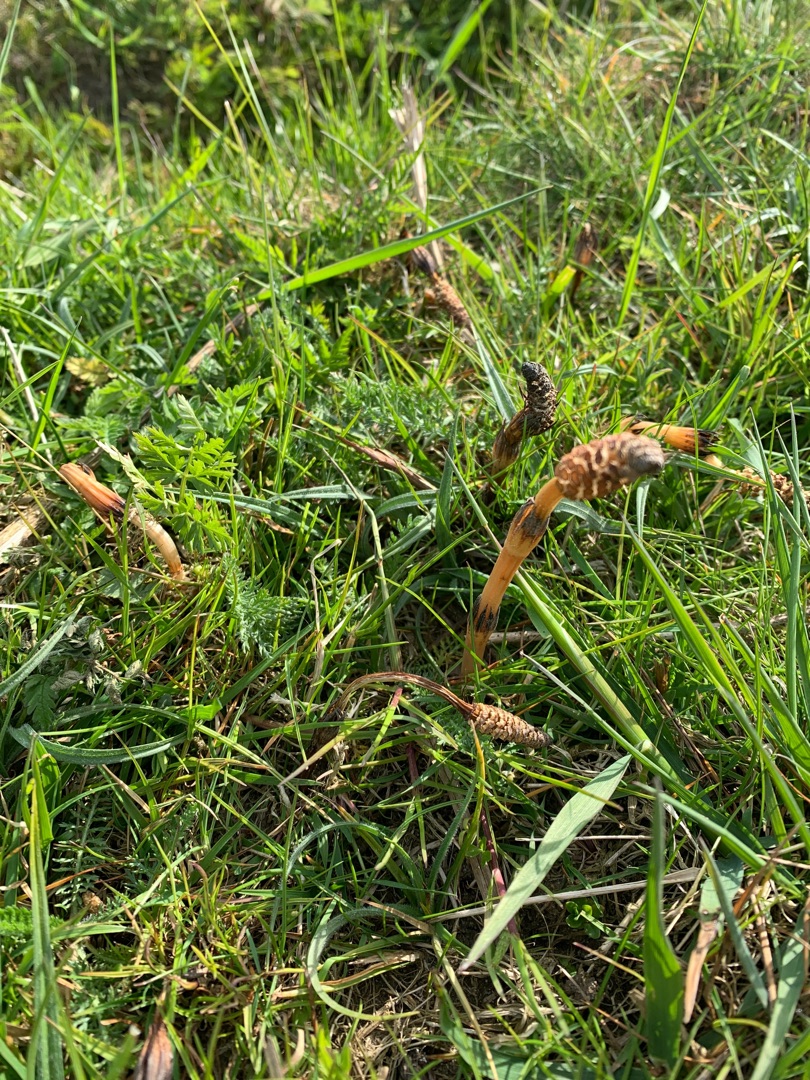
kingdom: Plantae
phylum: Tracheophyta
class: Polypodiopsida
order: Equisetales
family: Equisetaceae
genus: Equisetum
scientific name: Equisetum arvense
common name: Ager-padderok
